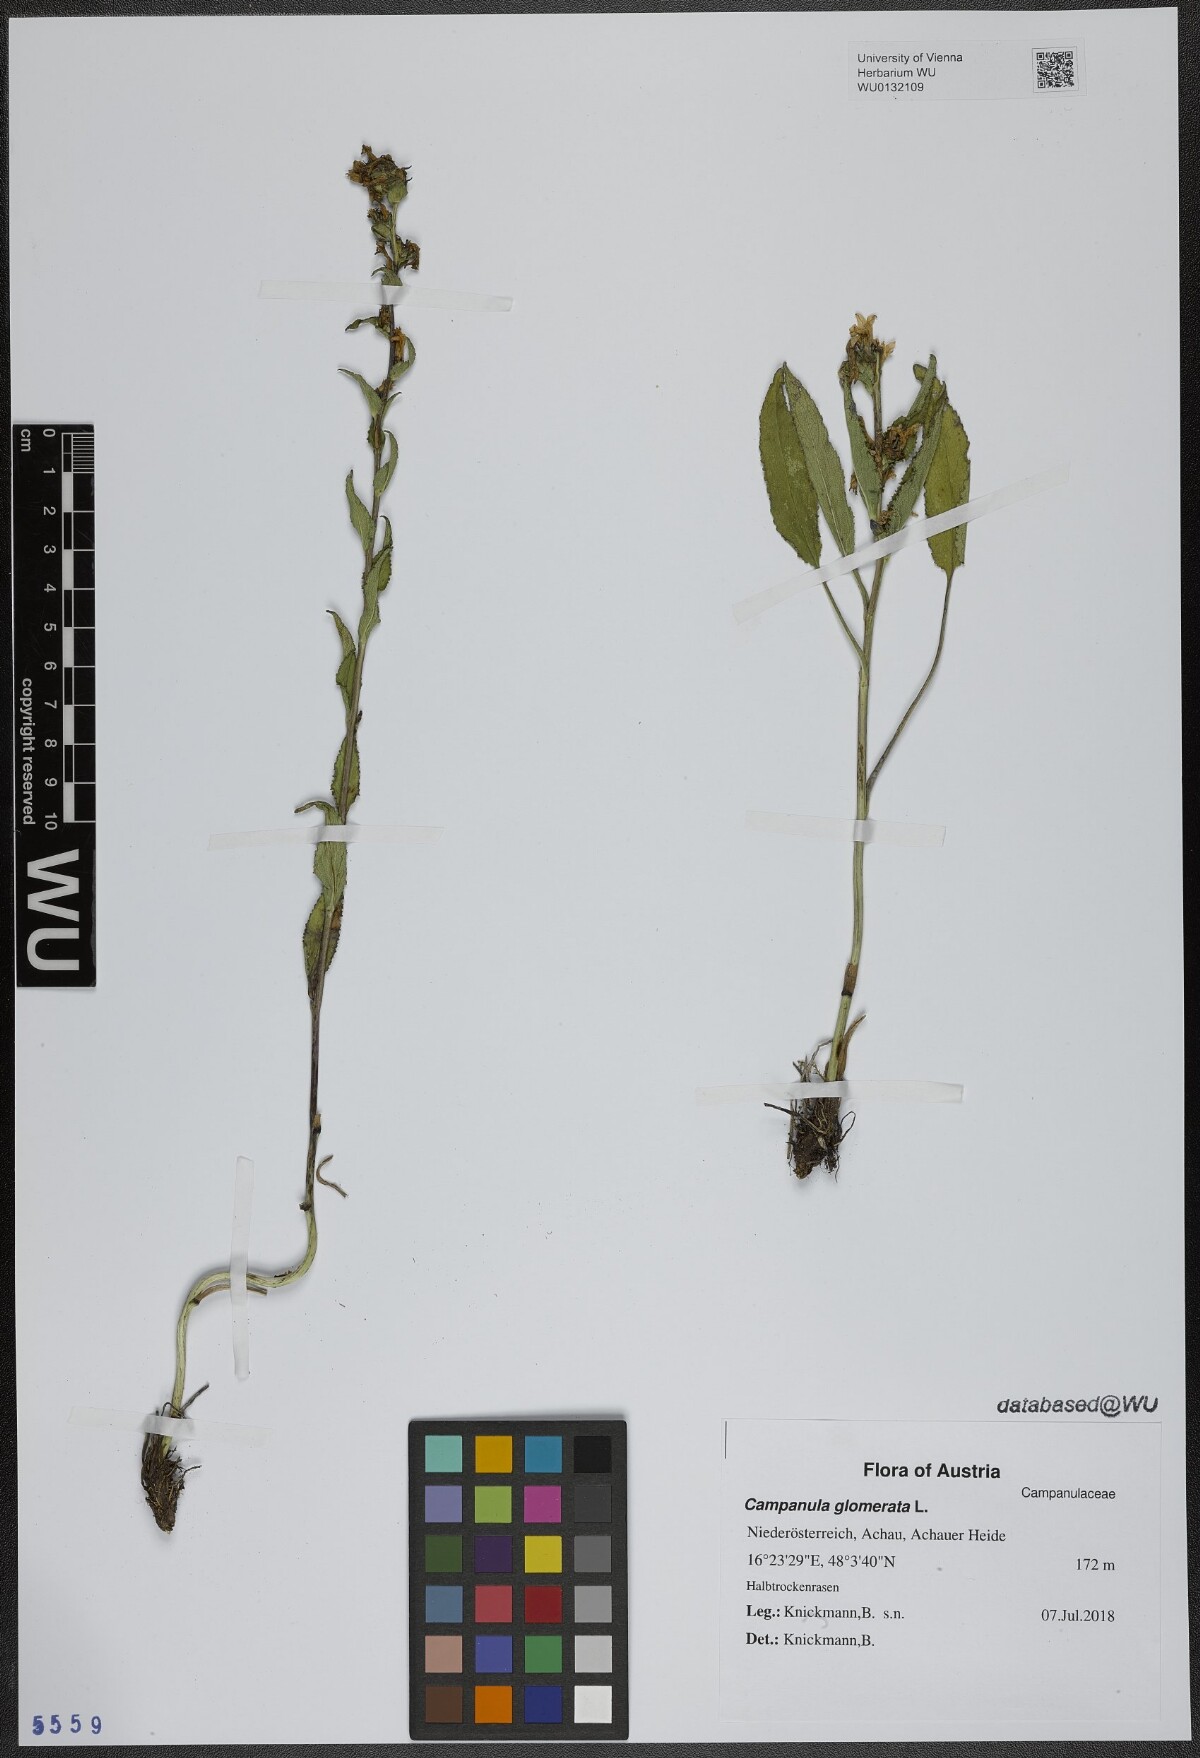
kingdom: Plantae
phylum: Tracheophyta
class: Magnoliopsida
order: Asterales
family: Campanulaceae
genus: Campanula
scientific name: Campanula glomerata
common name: Clustered bellflower
